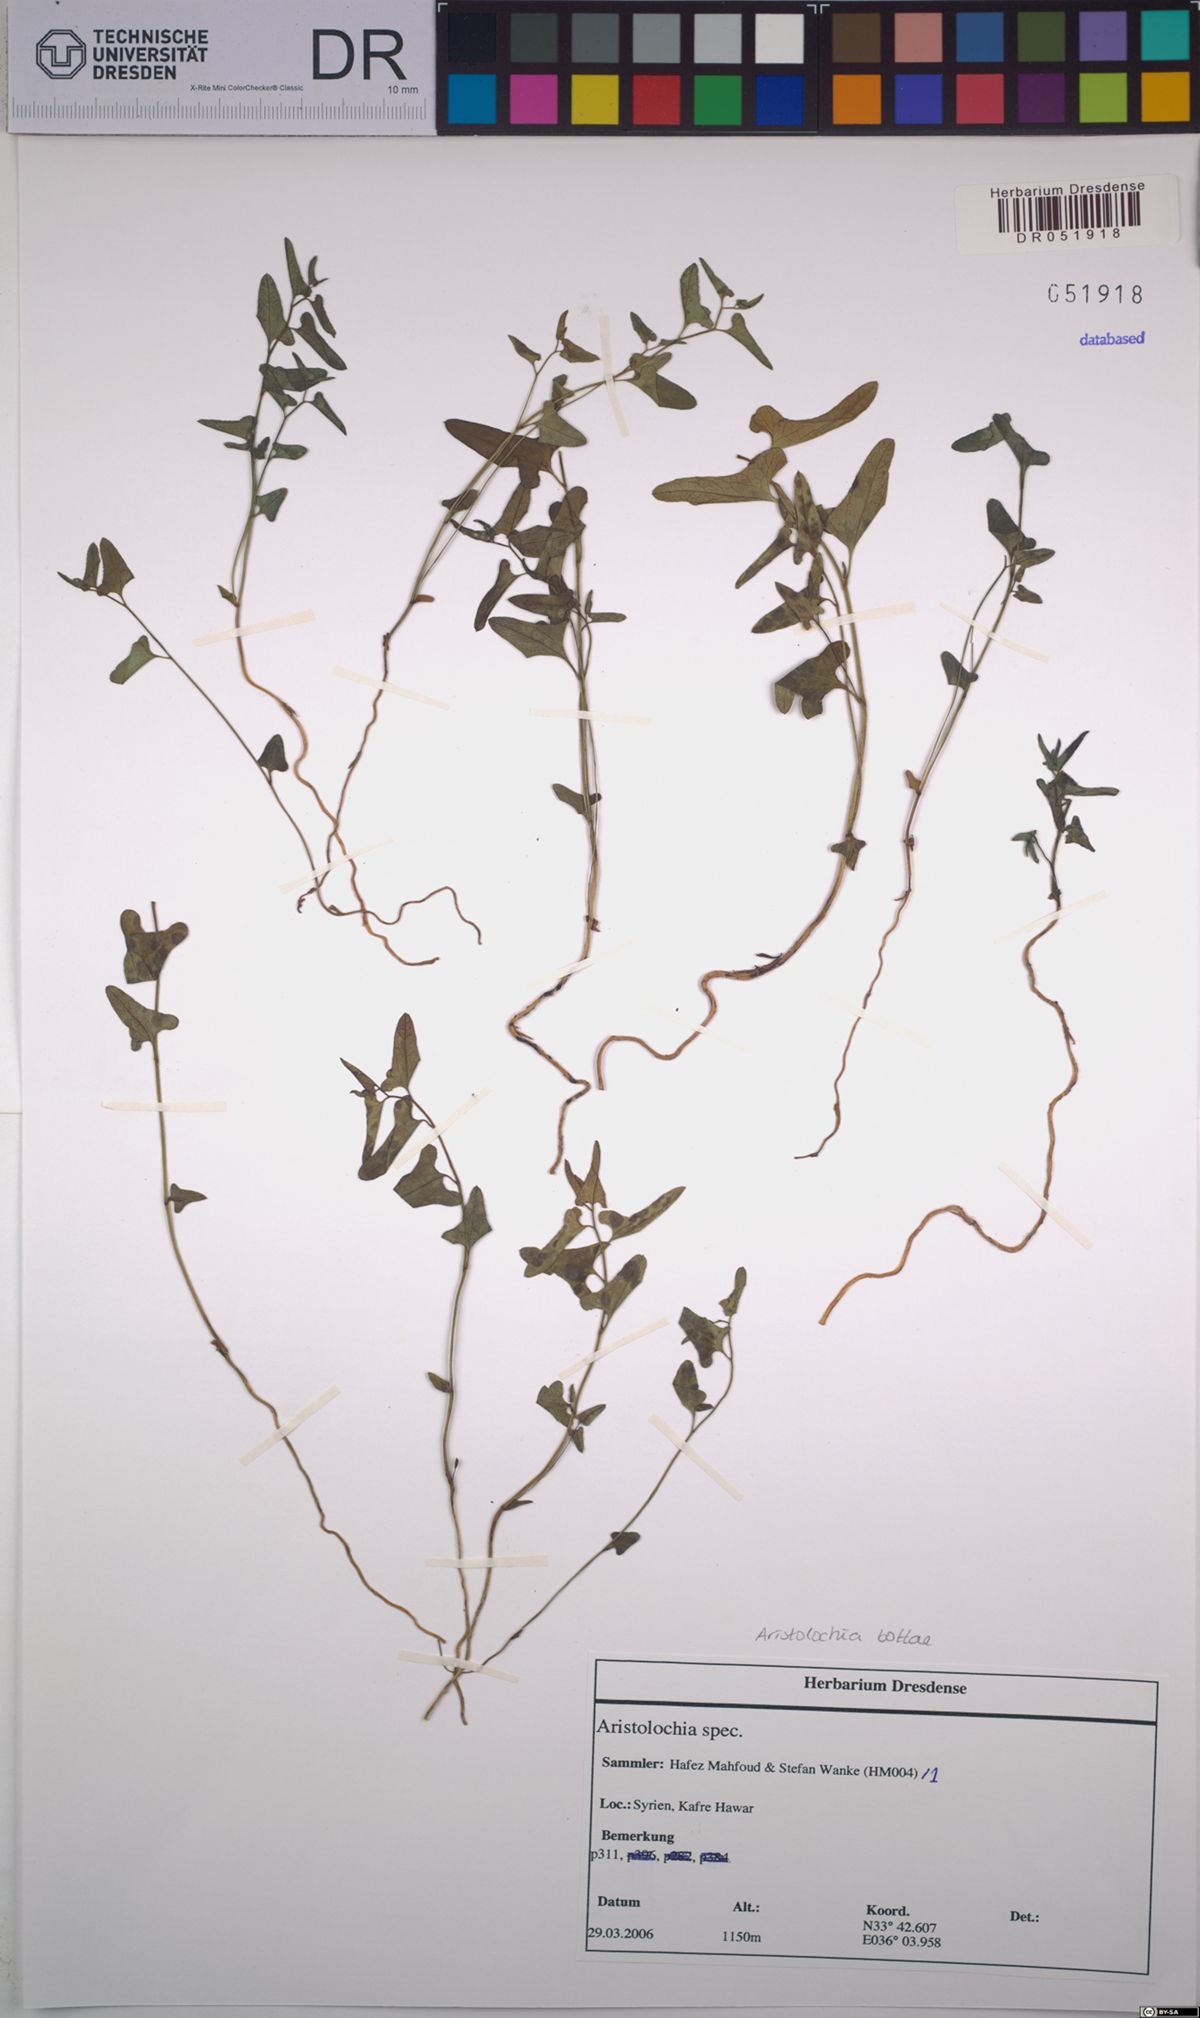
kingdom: Plantae
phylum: Tracheophyta
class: Magnoliopsida
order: Piperales
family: Aristolochiaceae
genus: Aristolochia
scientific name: Aristolochia bottae
